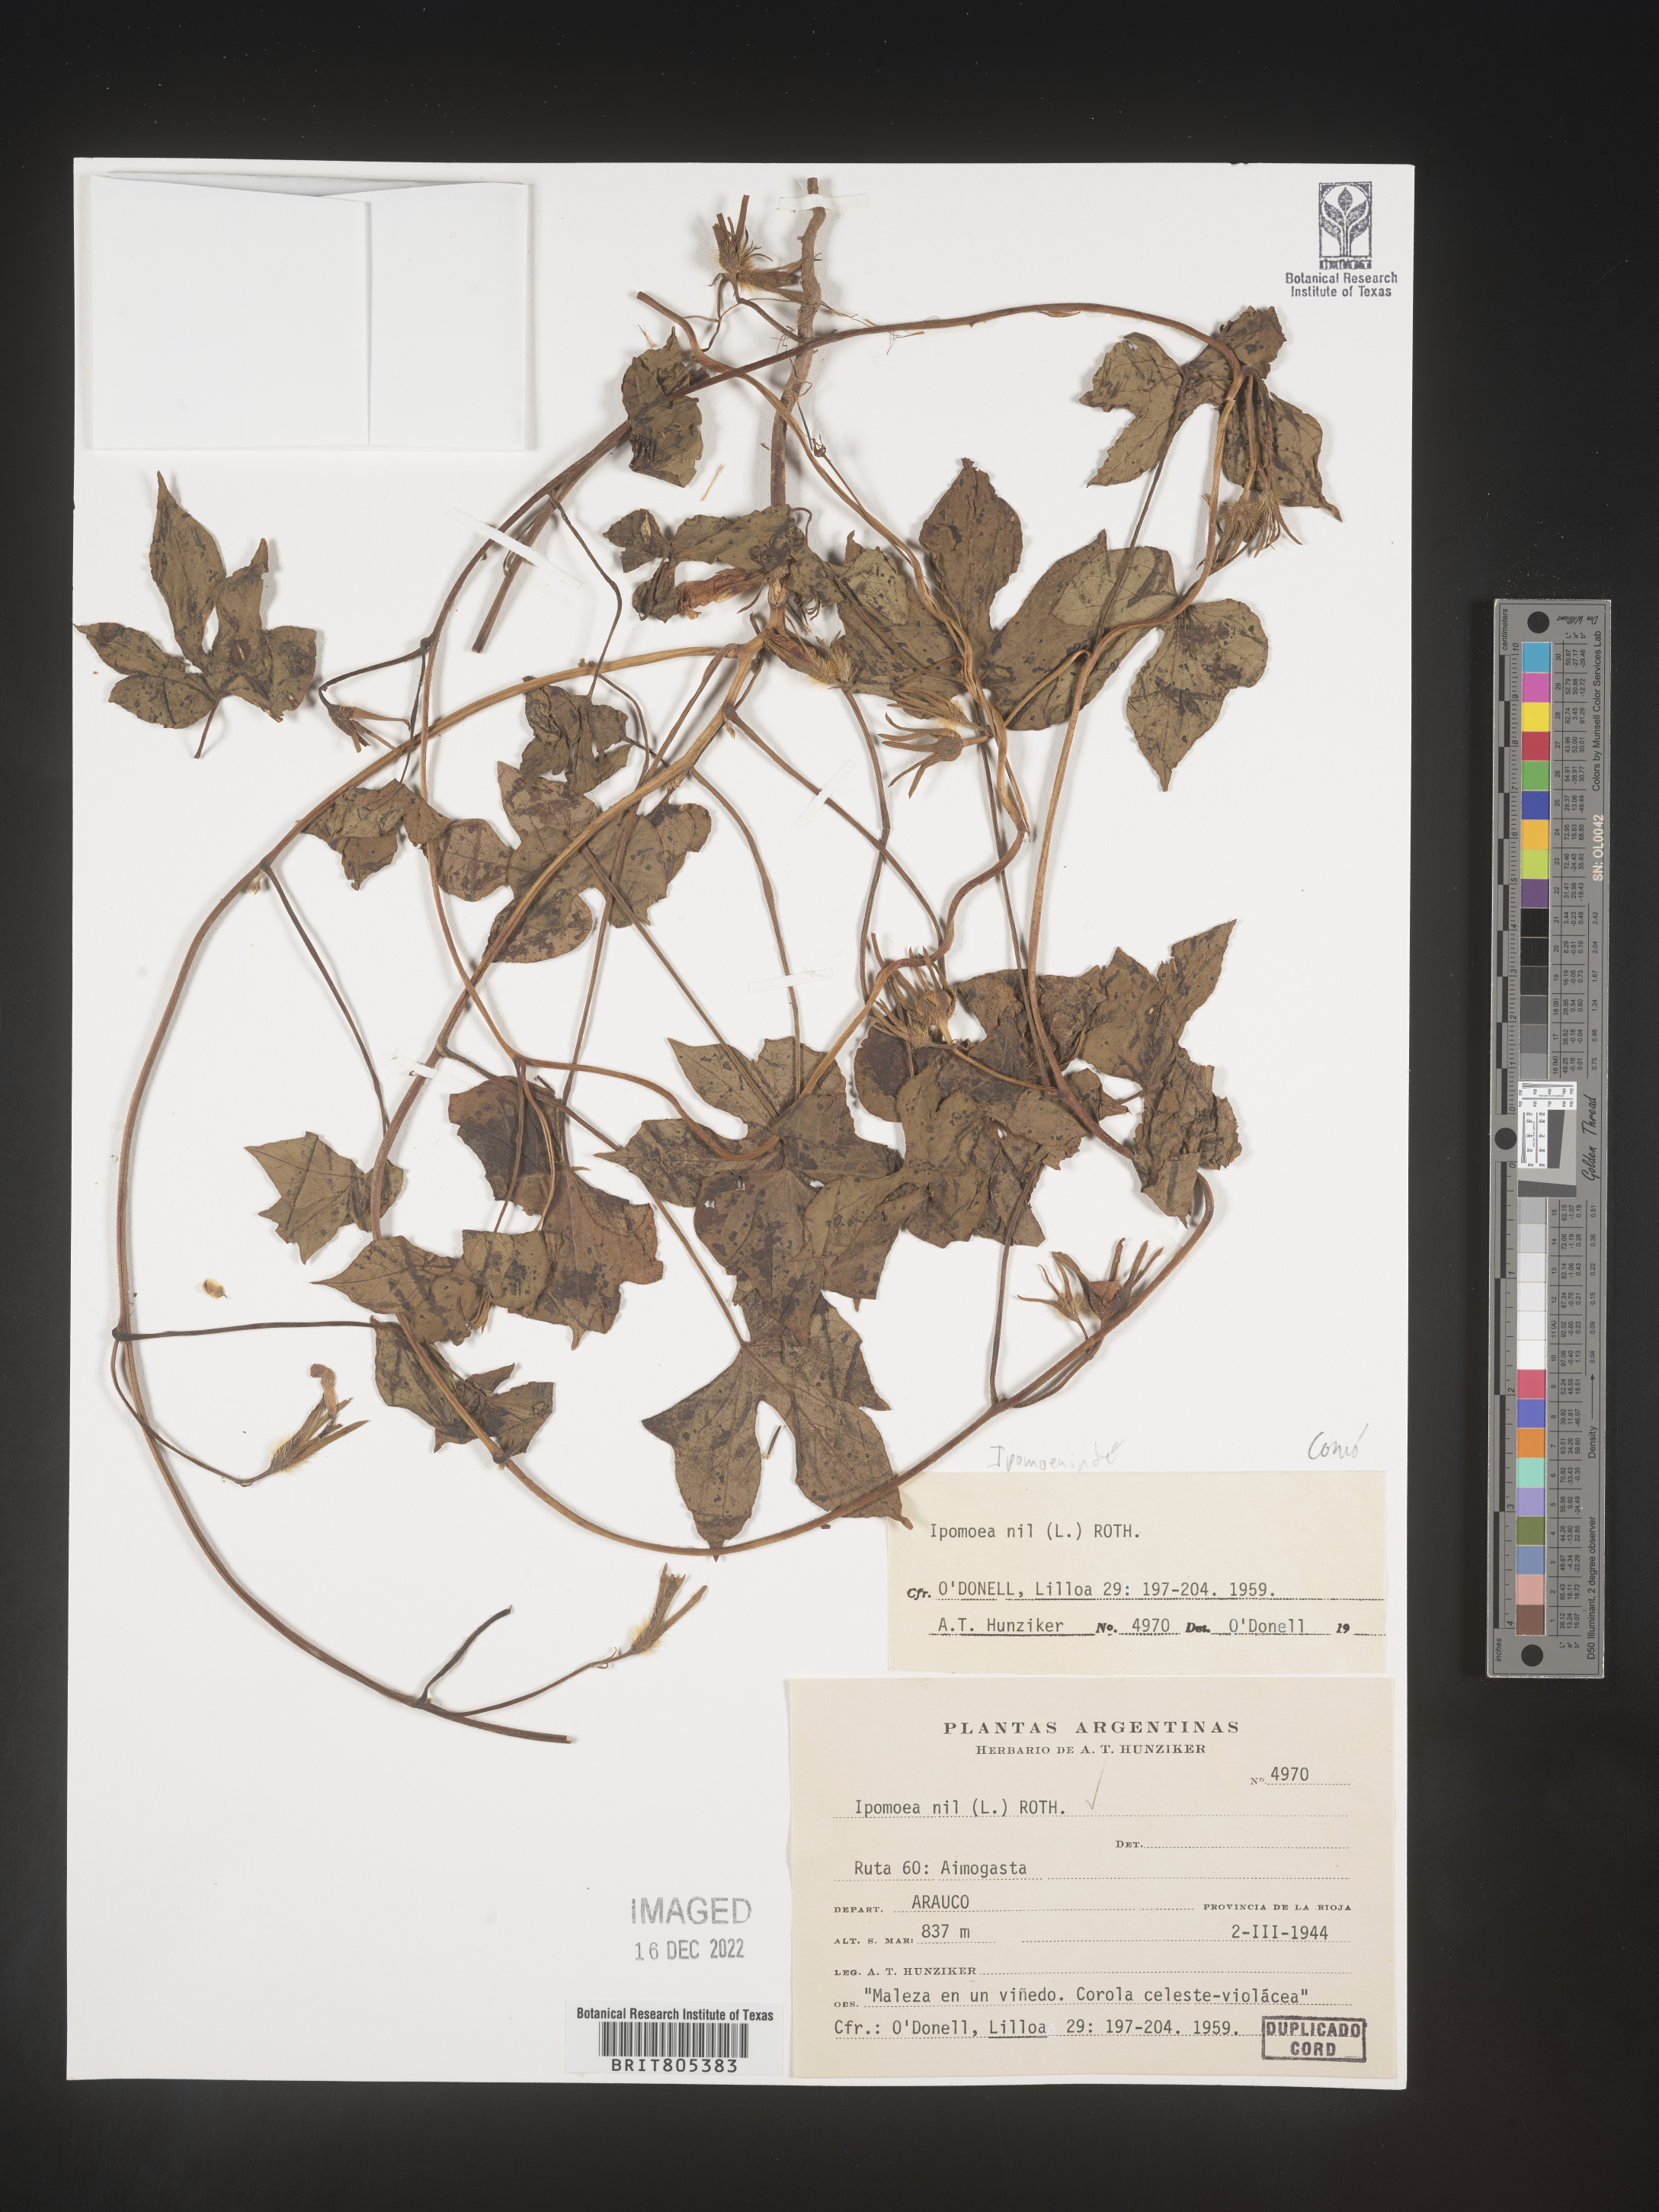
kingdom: Plantae
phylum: Tracheophyta
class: Magnoliopsida
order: Solanales
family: Convolvulaceae
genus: Ipomoea
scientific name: Ipomoea
